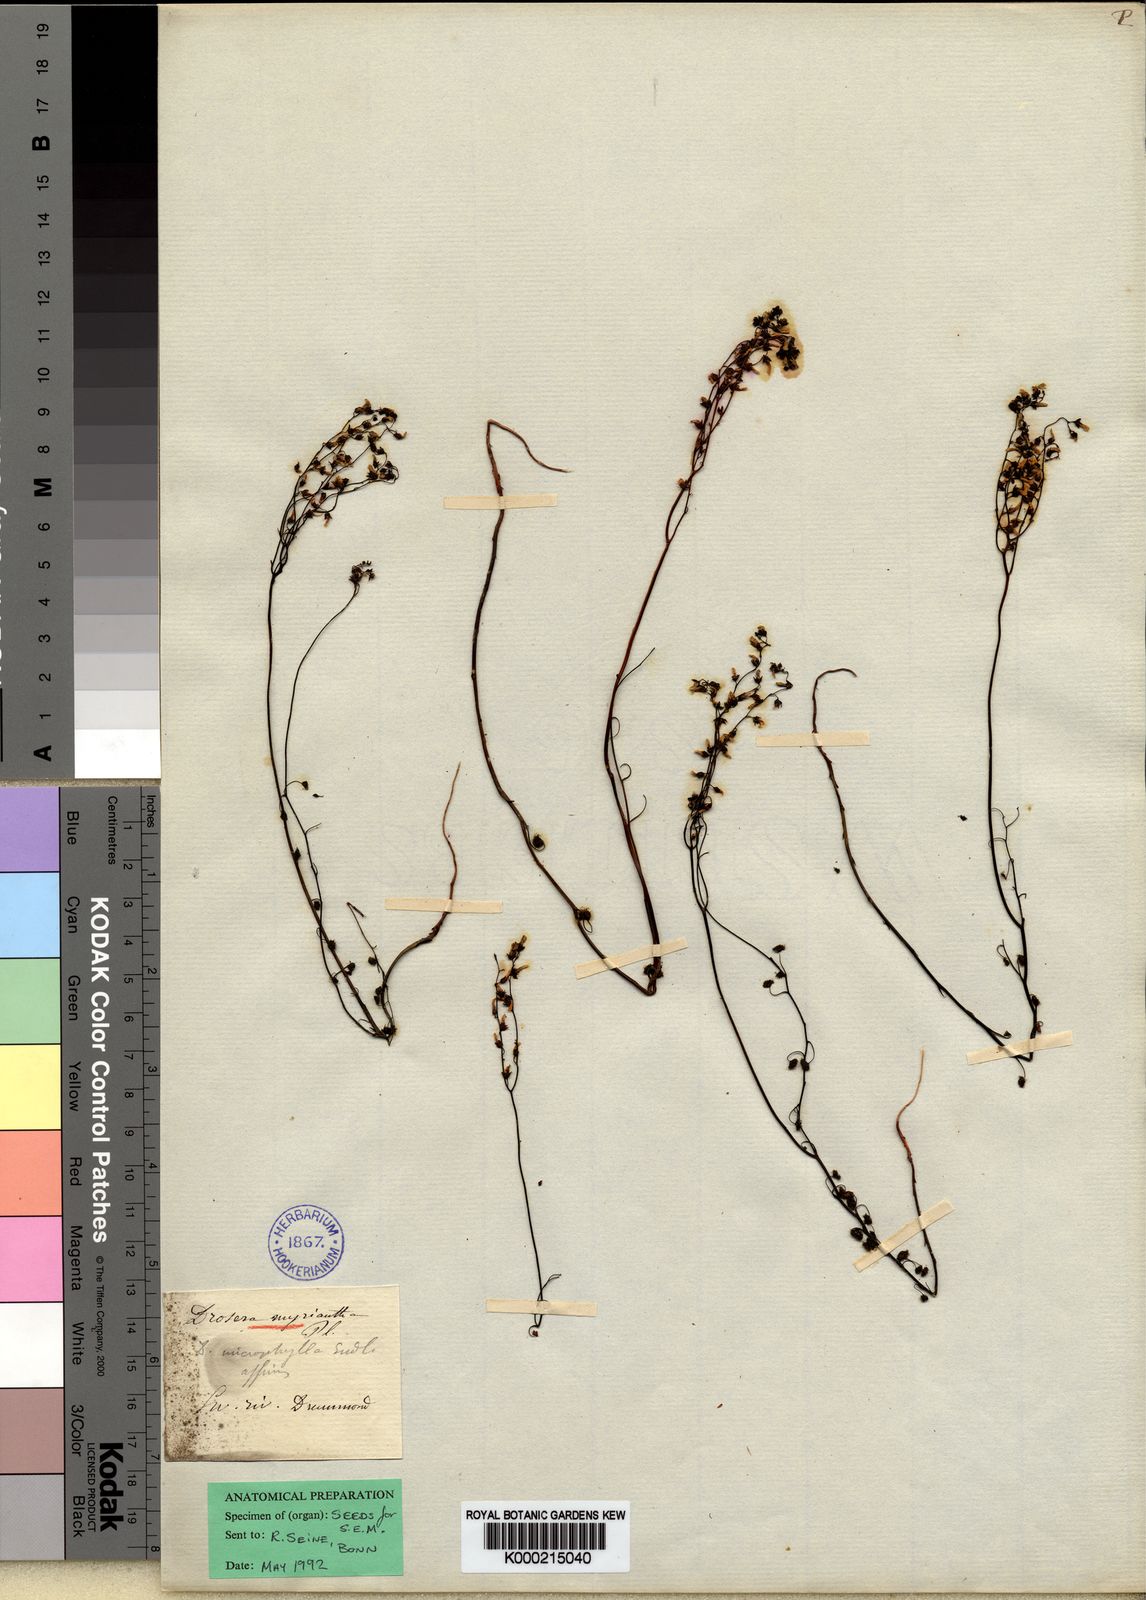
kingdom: Plantae
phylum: Tracheophyta
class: Magnoliopsida
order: Caryophyllales
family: Droseraceae
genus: Drosera
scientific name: Drosera myriantha
